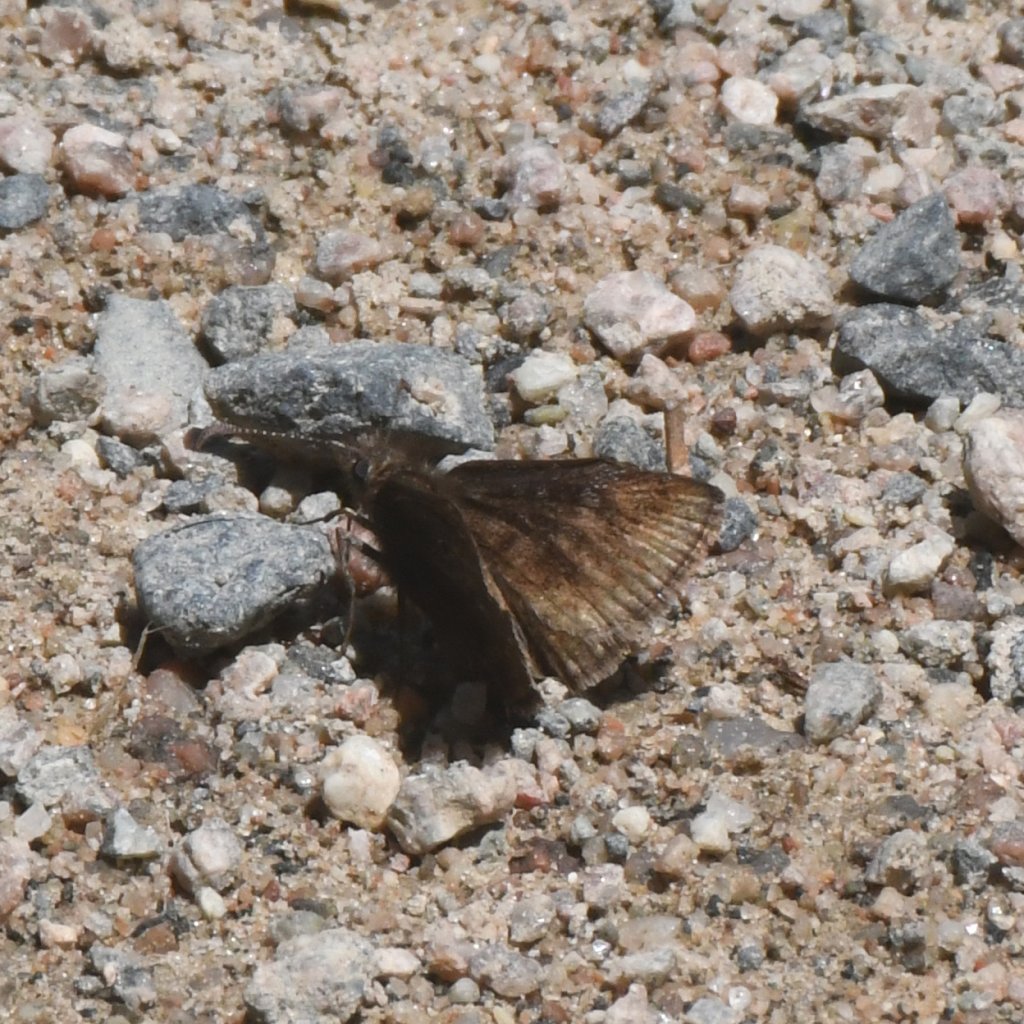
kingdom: Animalia
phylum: Arthropoda
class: Insecta
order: Lepidoptera
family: Hesperiidae
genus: Erynnis
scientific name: Erynnis icelus
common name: Dreamy Duskywing
